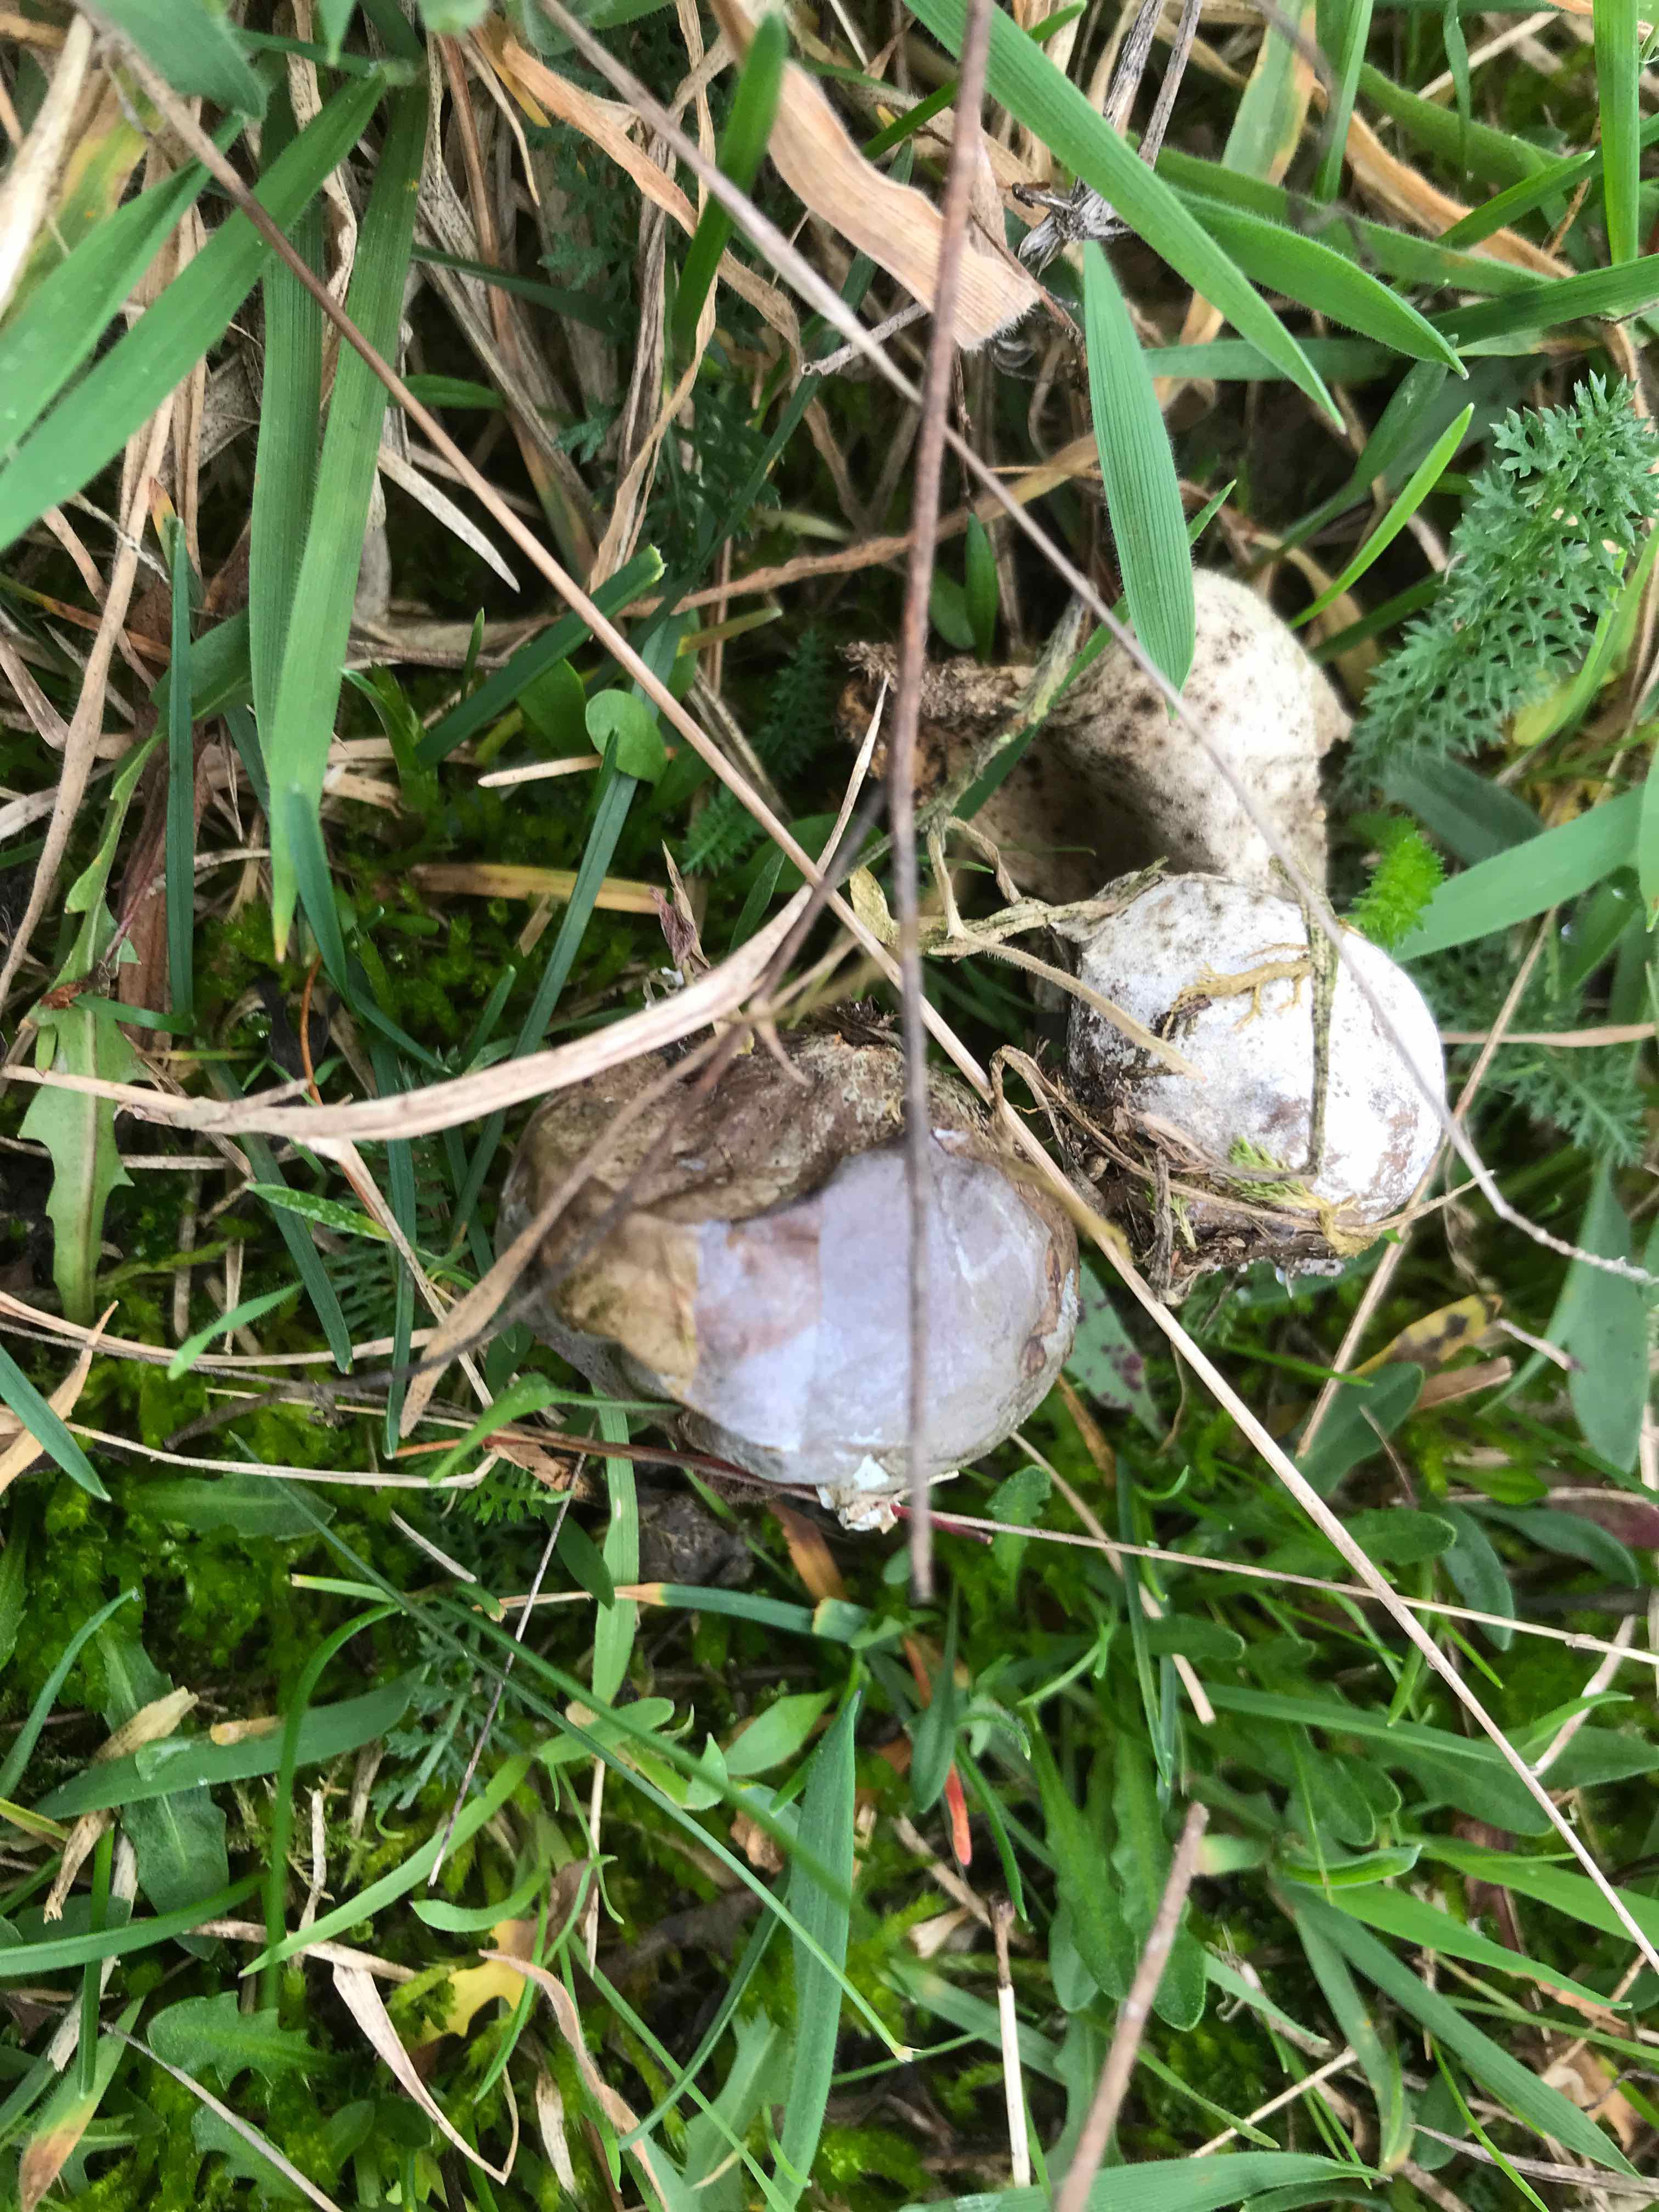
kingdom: Fungi
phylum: Basidiomycota
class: Agaricomycetes
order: Agaricales
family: Lycoperdaceae
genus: Bovista
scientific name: Bovista plumbea
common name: blygrå bovist
